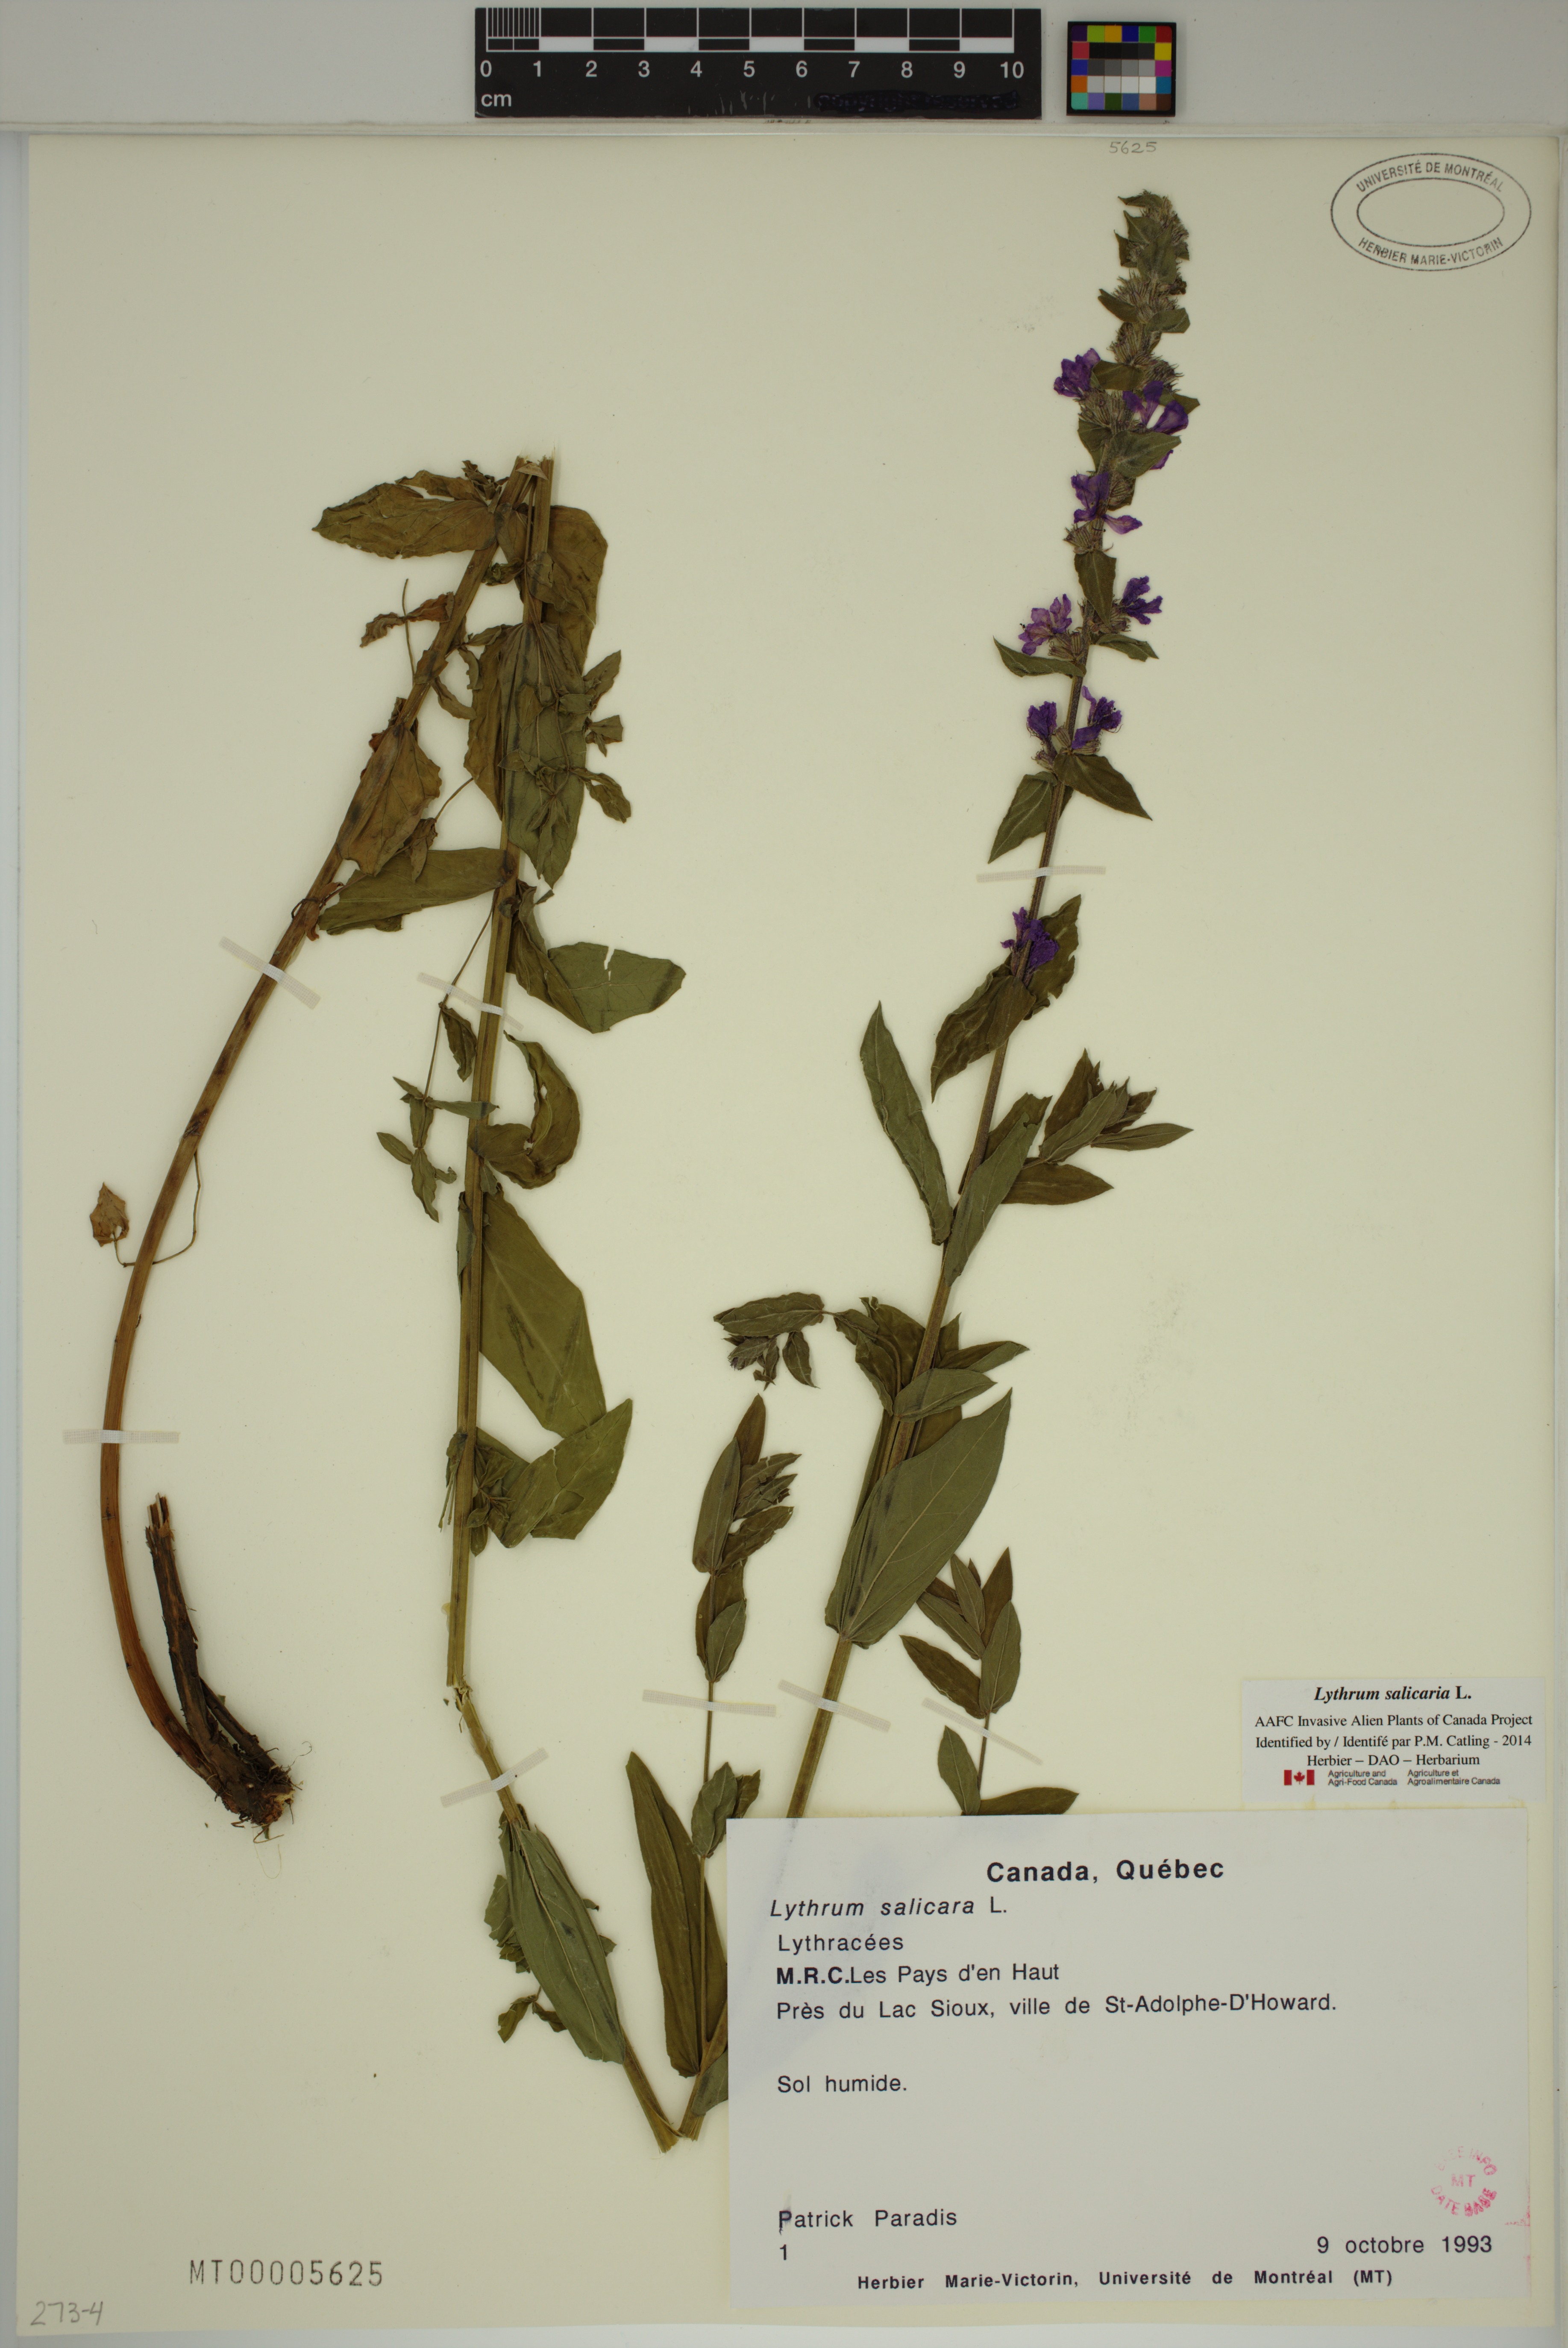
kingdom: Plantae
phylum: Tracheophyta
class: Magnoliopsida
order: Myrtales
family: Lythraceae
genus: Lythrum
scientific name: Lythrum salicaria
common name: Purple loosestrife
